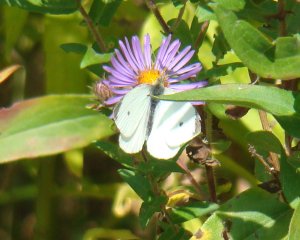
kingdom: Animalia
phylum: Arthropoda
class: Insecta
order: Lepidoptera
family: Pieridae
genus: Pieris
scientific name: Pieris rapae
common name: Cabbage White
